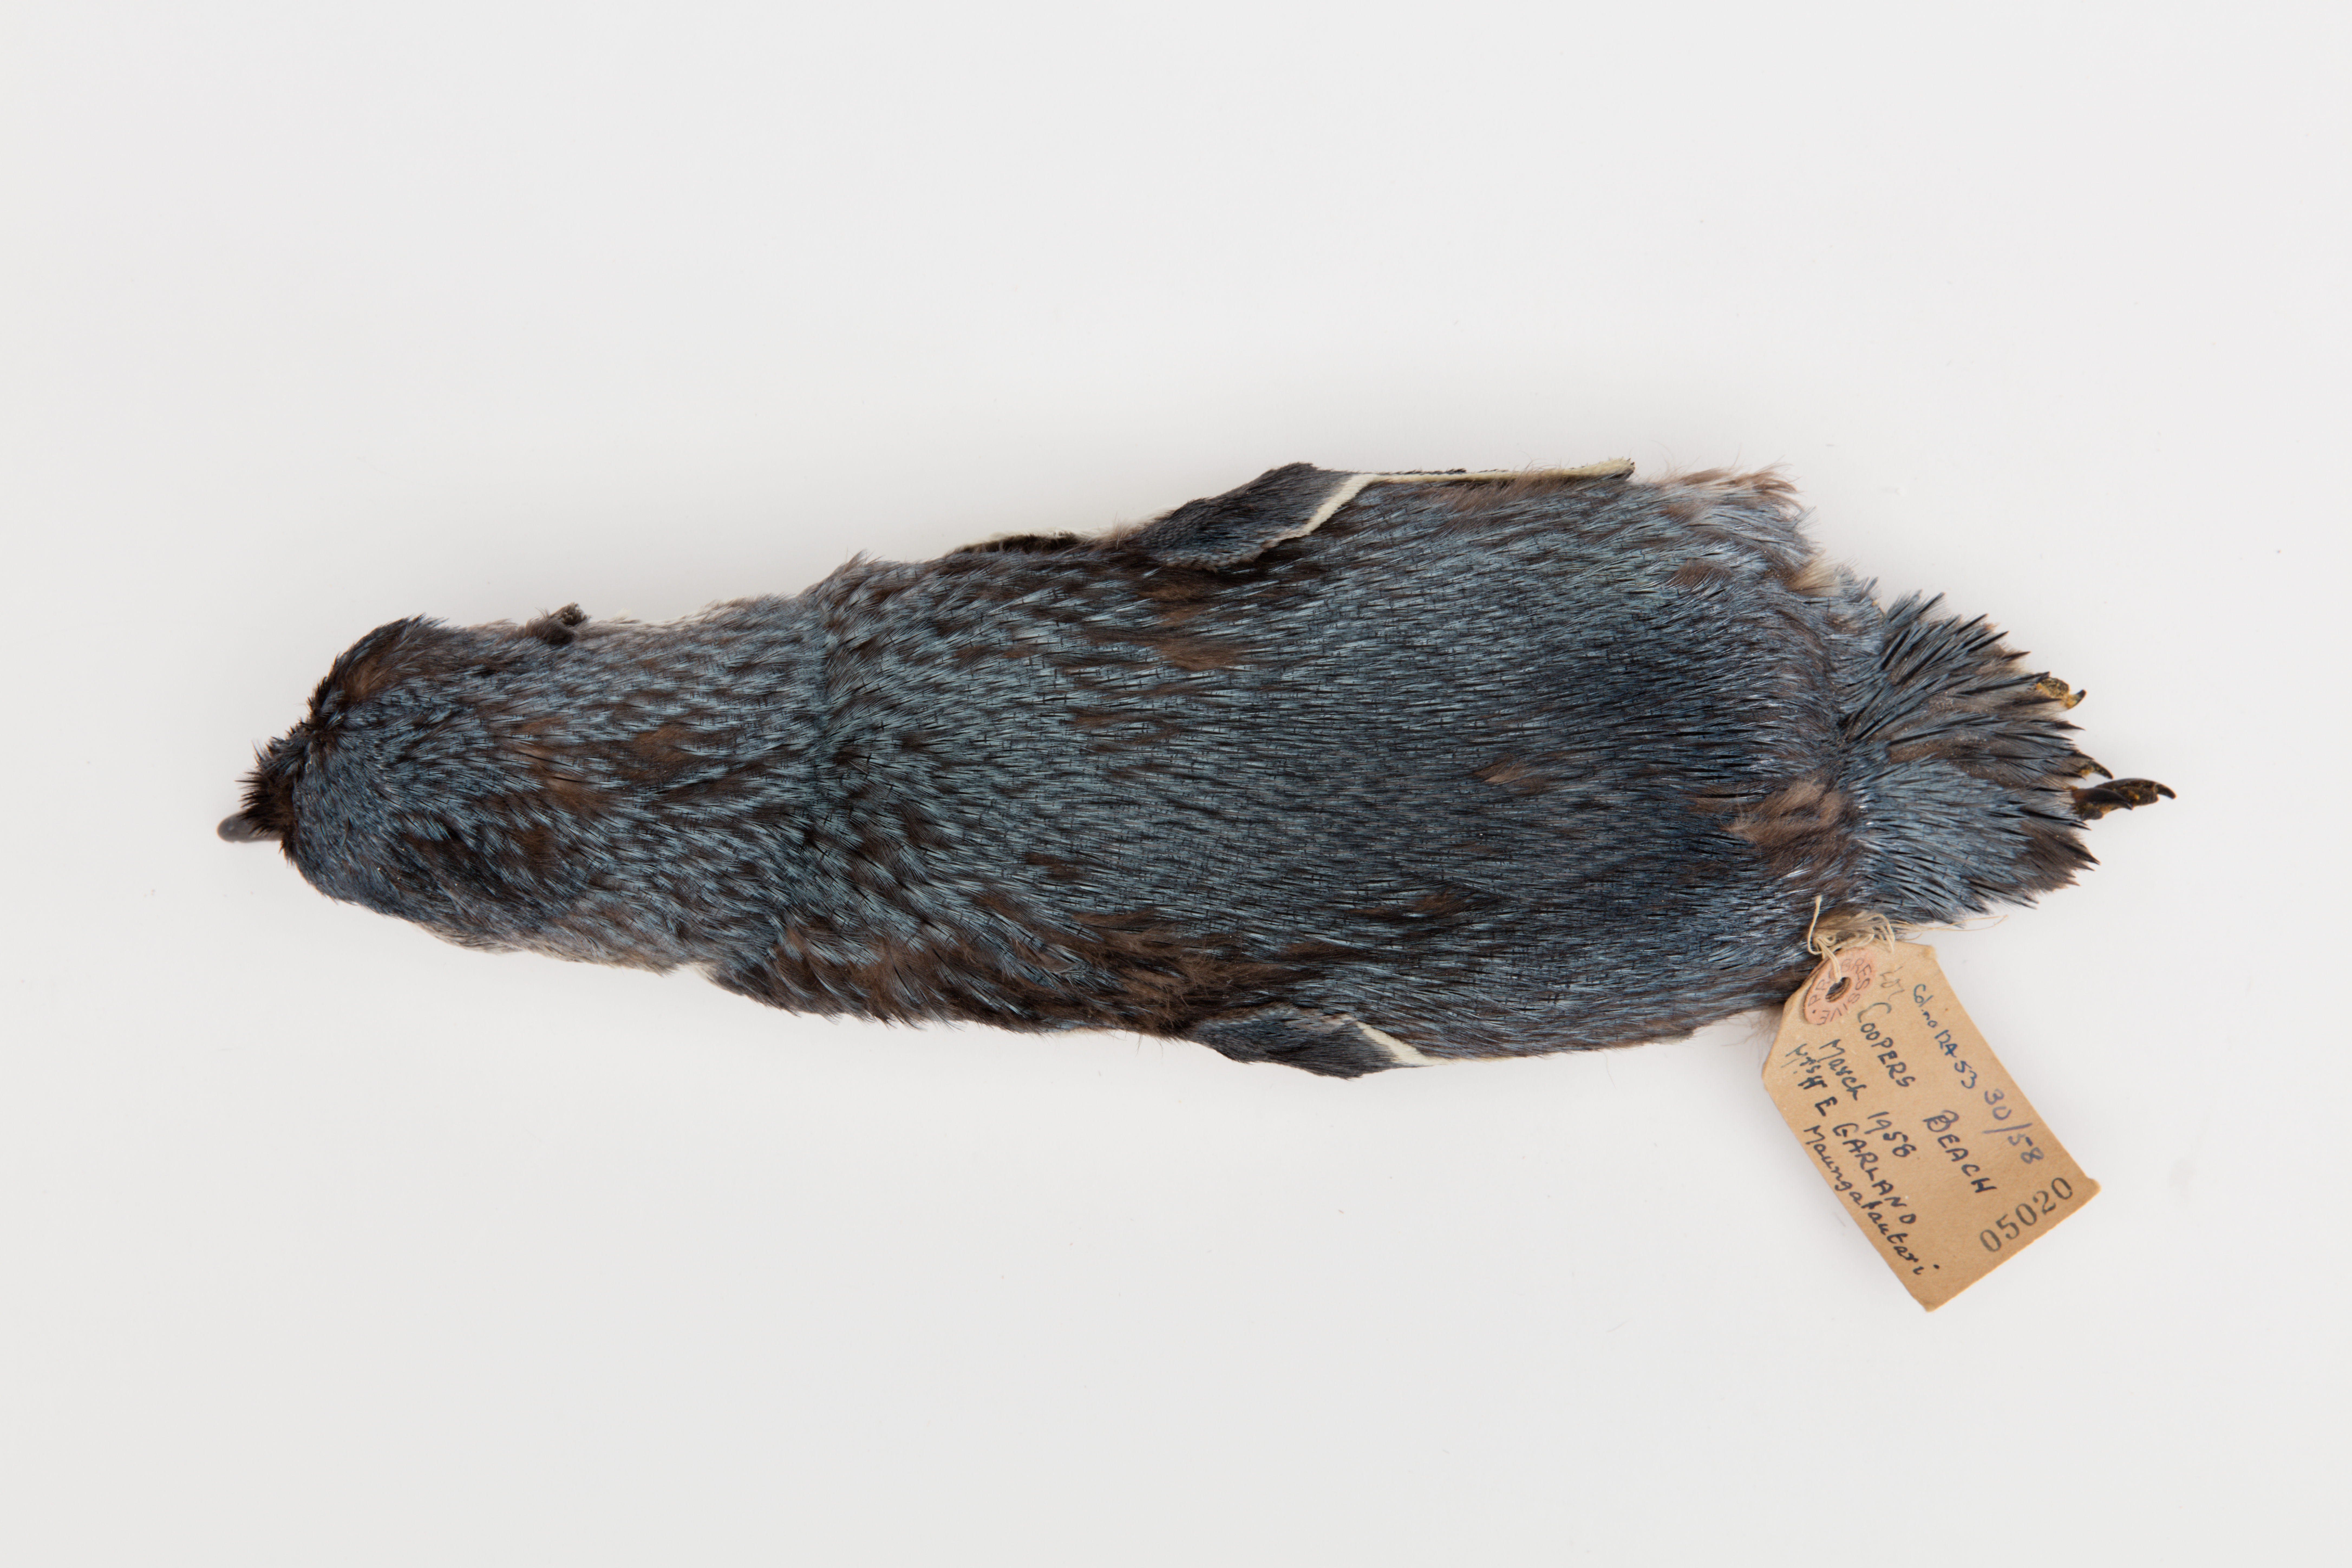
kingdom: Animalia
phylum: Chordata
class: Aves
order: Sphenisciformes
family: Spheniscidae
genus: Eudyptula
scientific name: Eudyptula minor
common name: Little penguin
